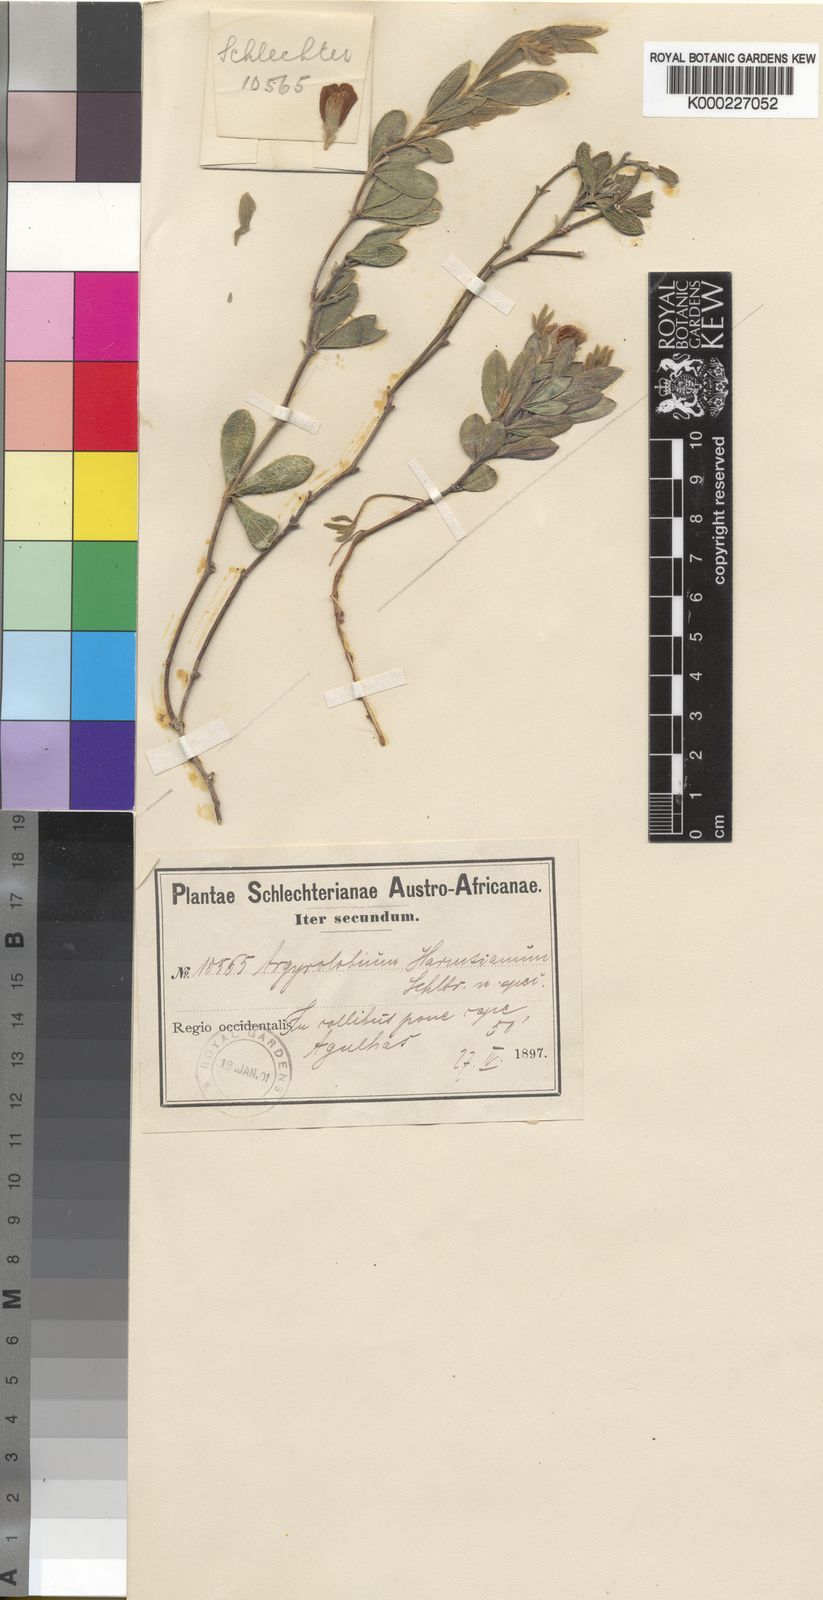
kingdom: Plantae
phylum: Tracheophyta
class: Magnoliopsida
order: Fabales
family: Fabaceae
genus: Argyrolobium
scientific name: Argyrolobium harmsianum
